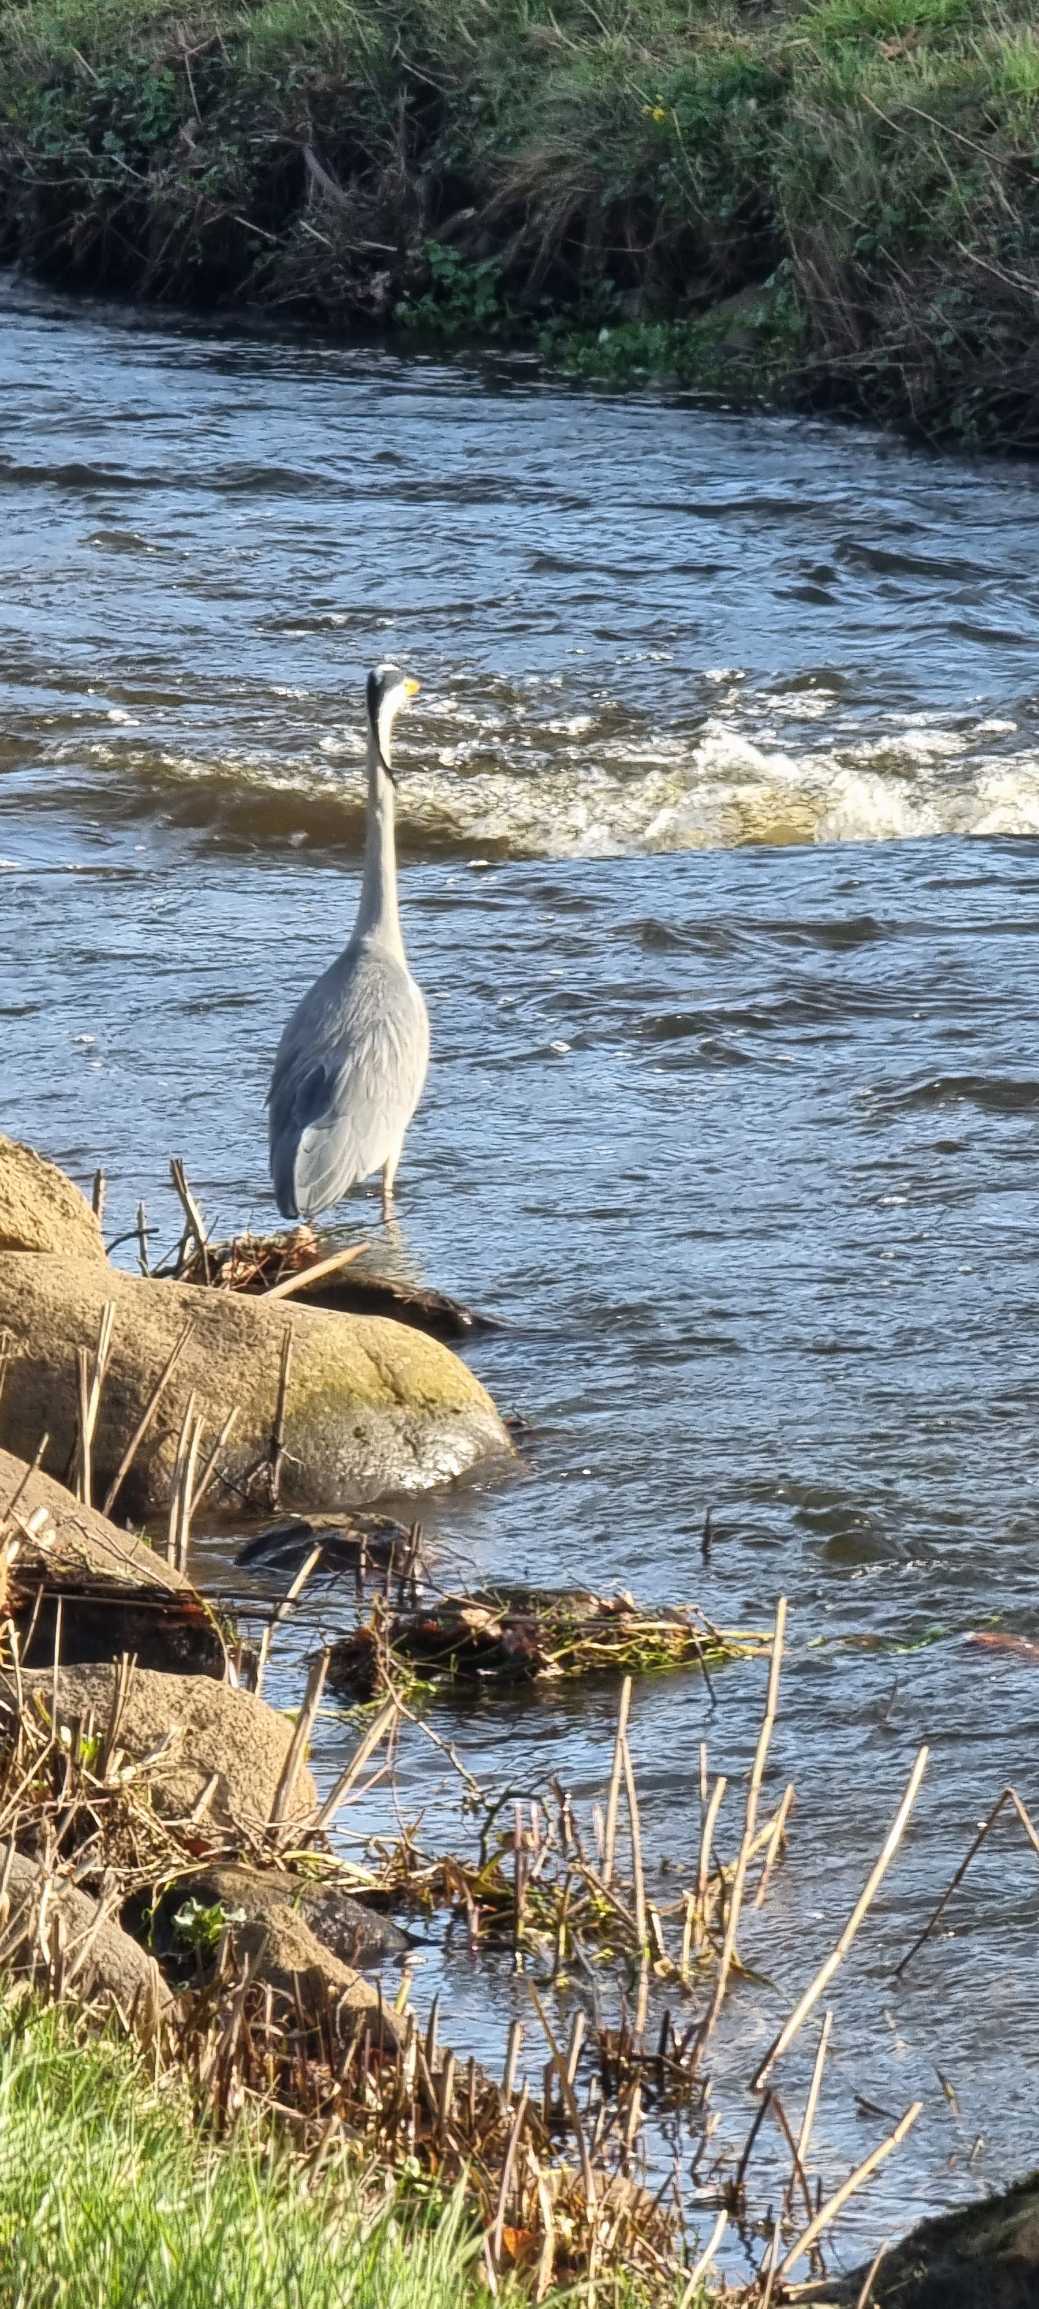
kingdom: Animalia
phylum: Chordata
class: Aves
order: Pelecaniformes
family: Ardeidae
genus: Ardea
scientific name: Ardea cinerea
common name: Fiskehejre
